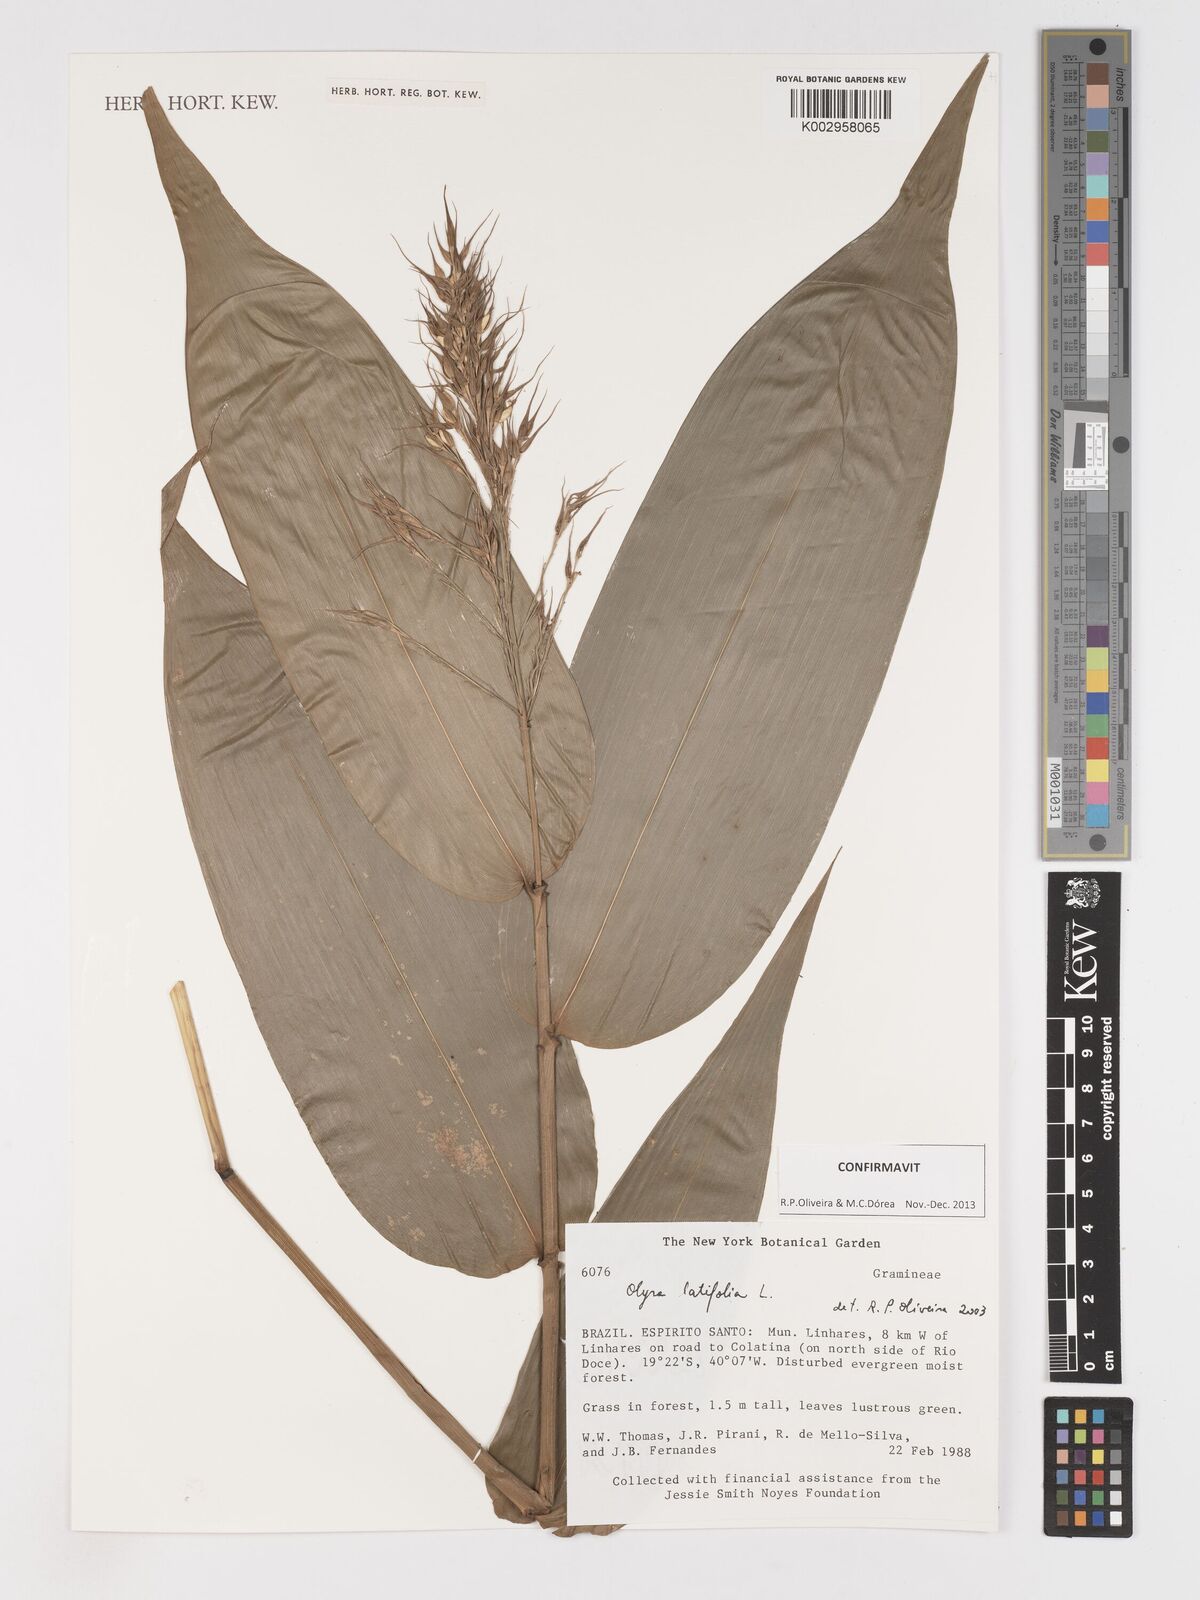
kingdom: Plantae
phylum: Tracheophyta
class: Liliopsida
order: Poales
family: Poaceae
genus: Olyra
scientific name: Olyra latifolia
